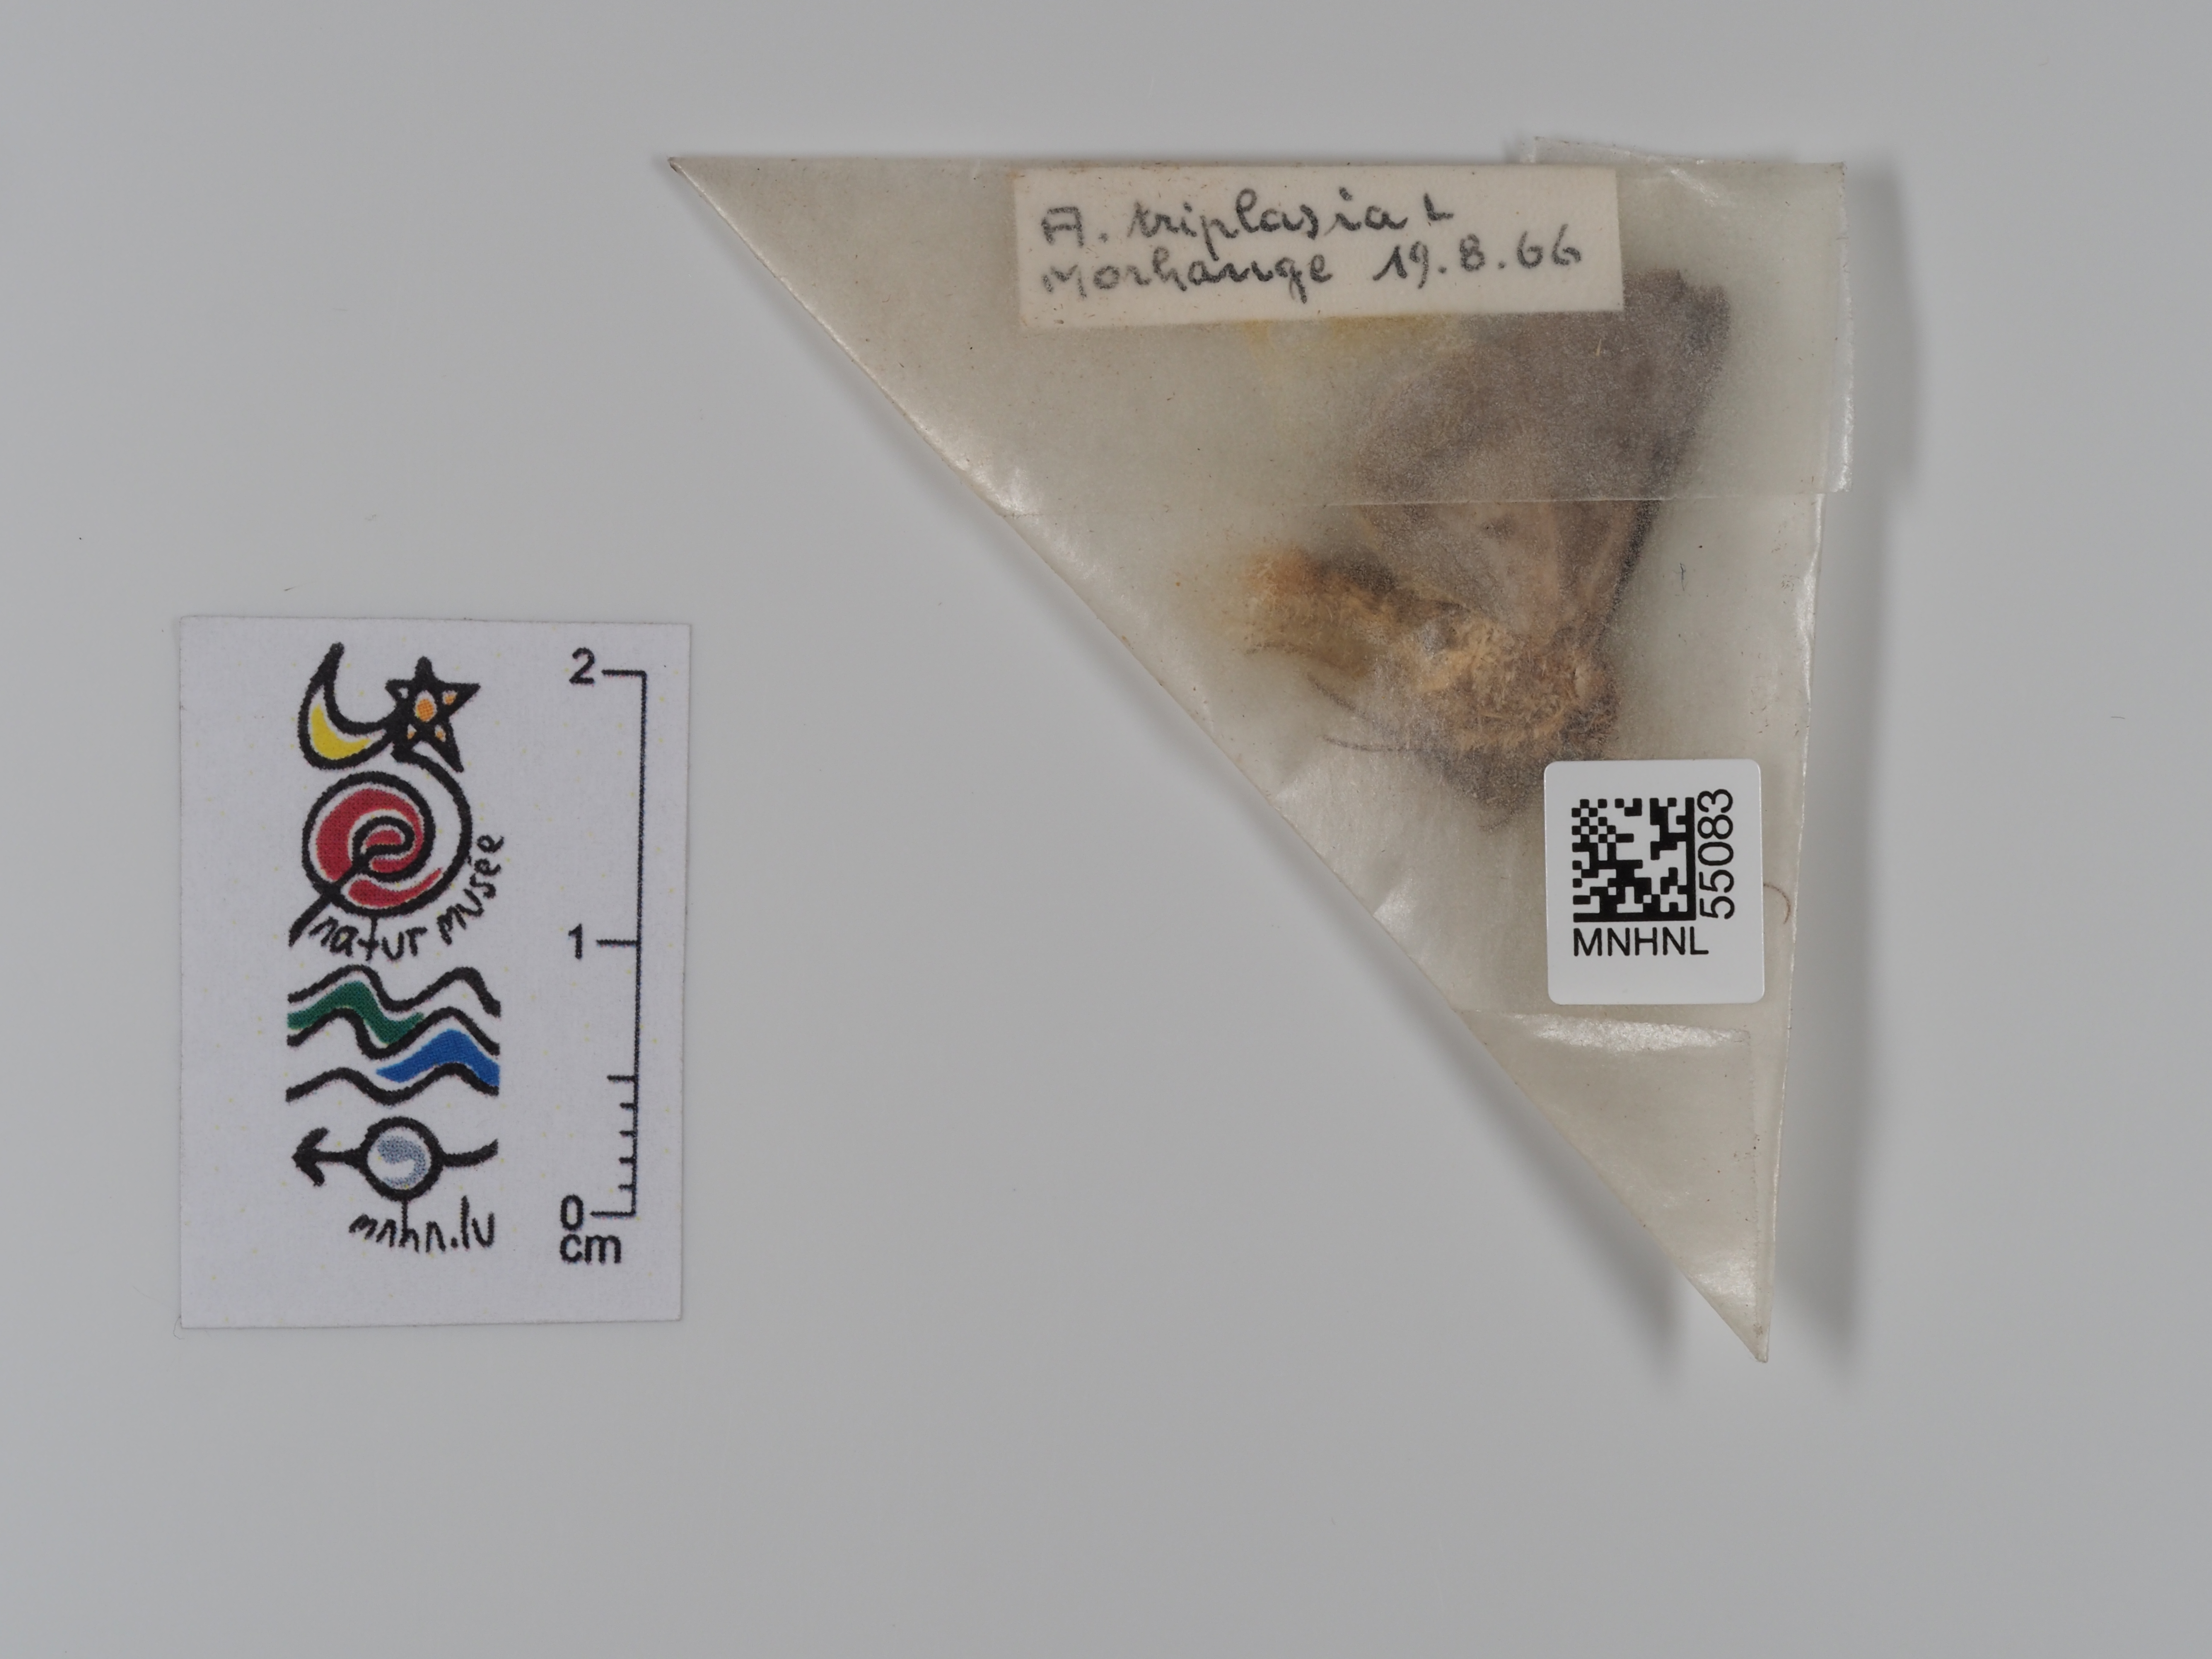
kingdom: Animalia
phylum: Arthropoda
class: Insecta
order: Lepidoptera
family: Noctuidae
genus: Abrostola
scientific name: Abrostola triplasia
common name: Dark spectacle
